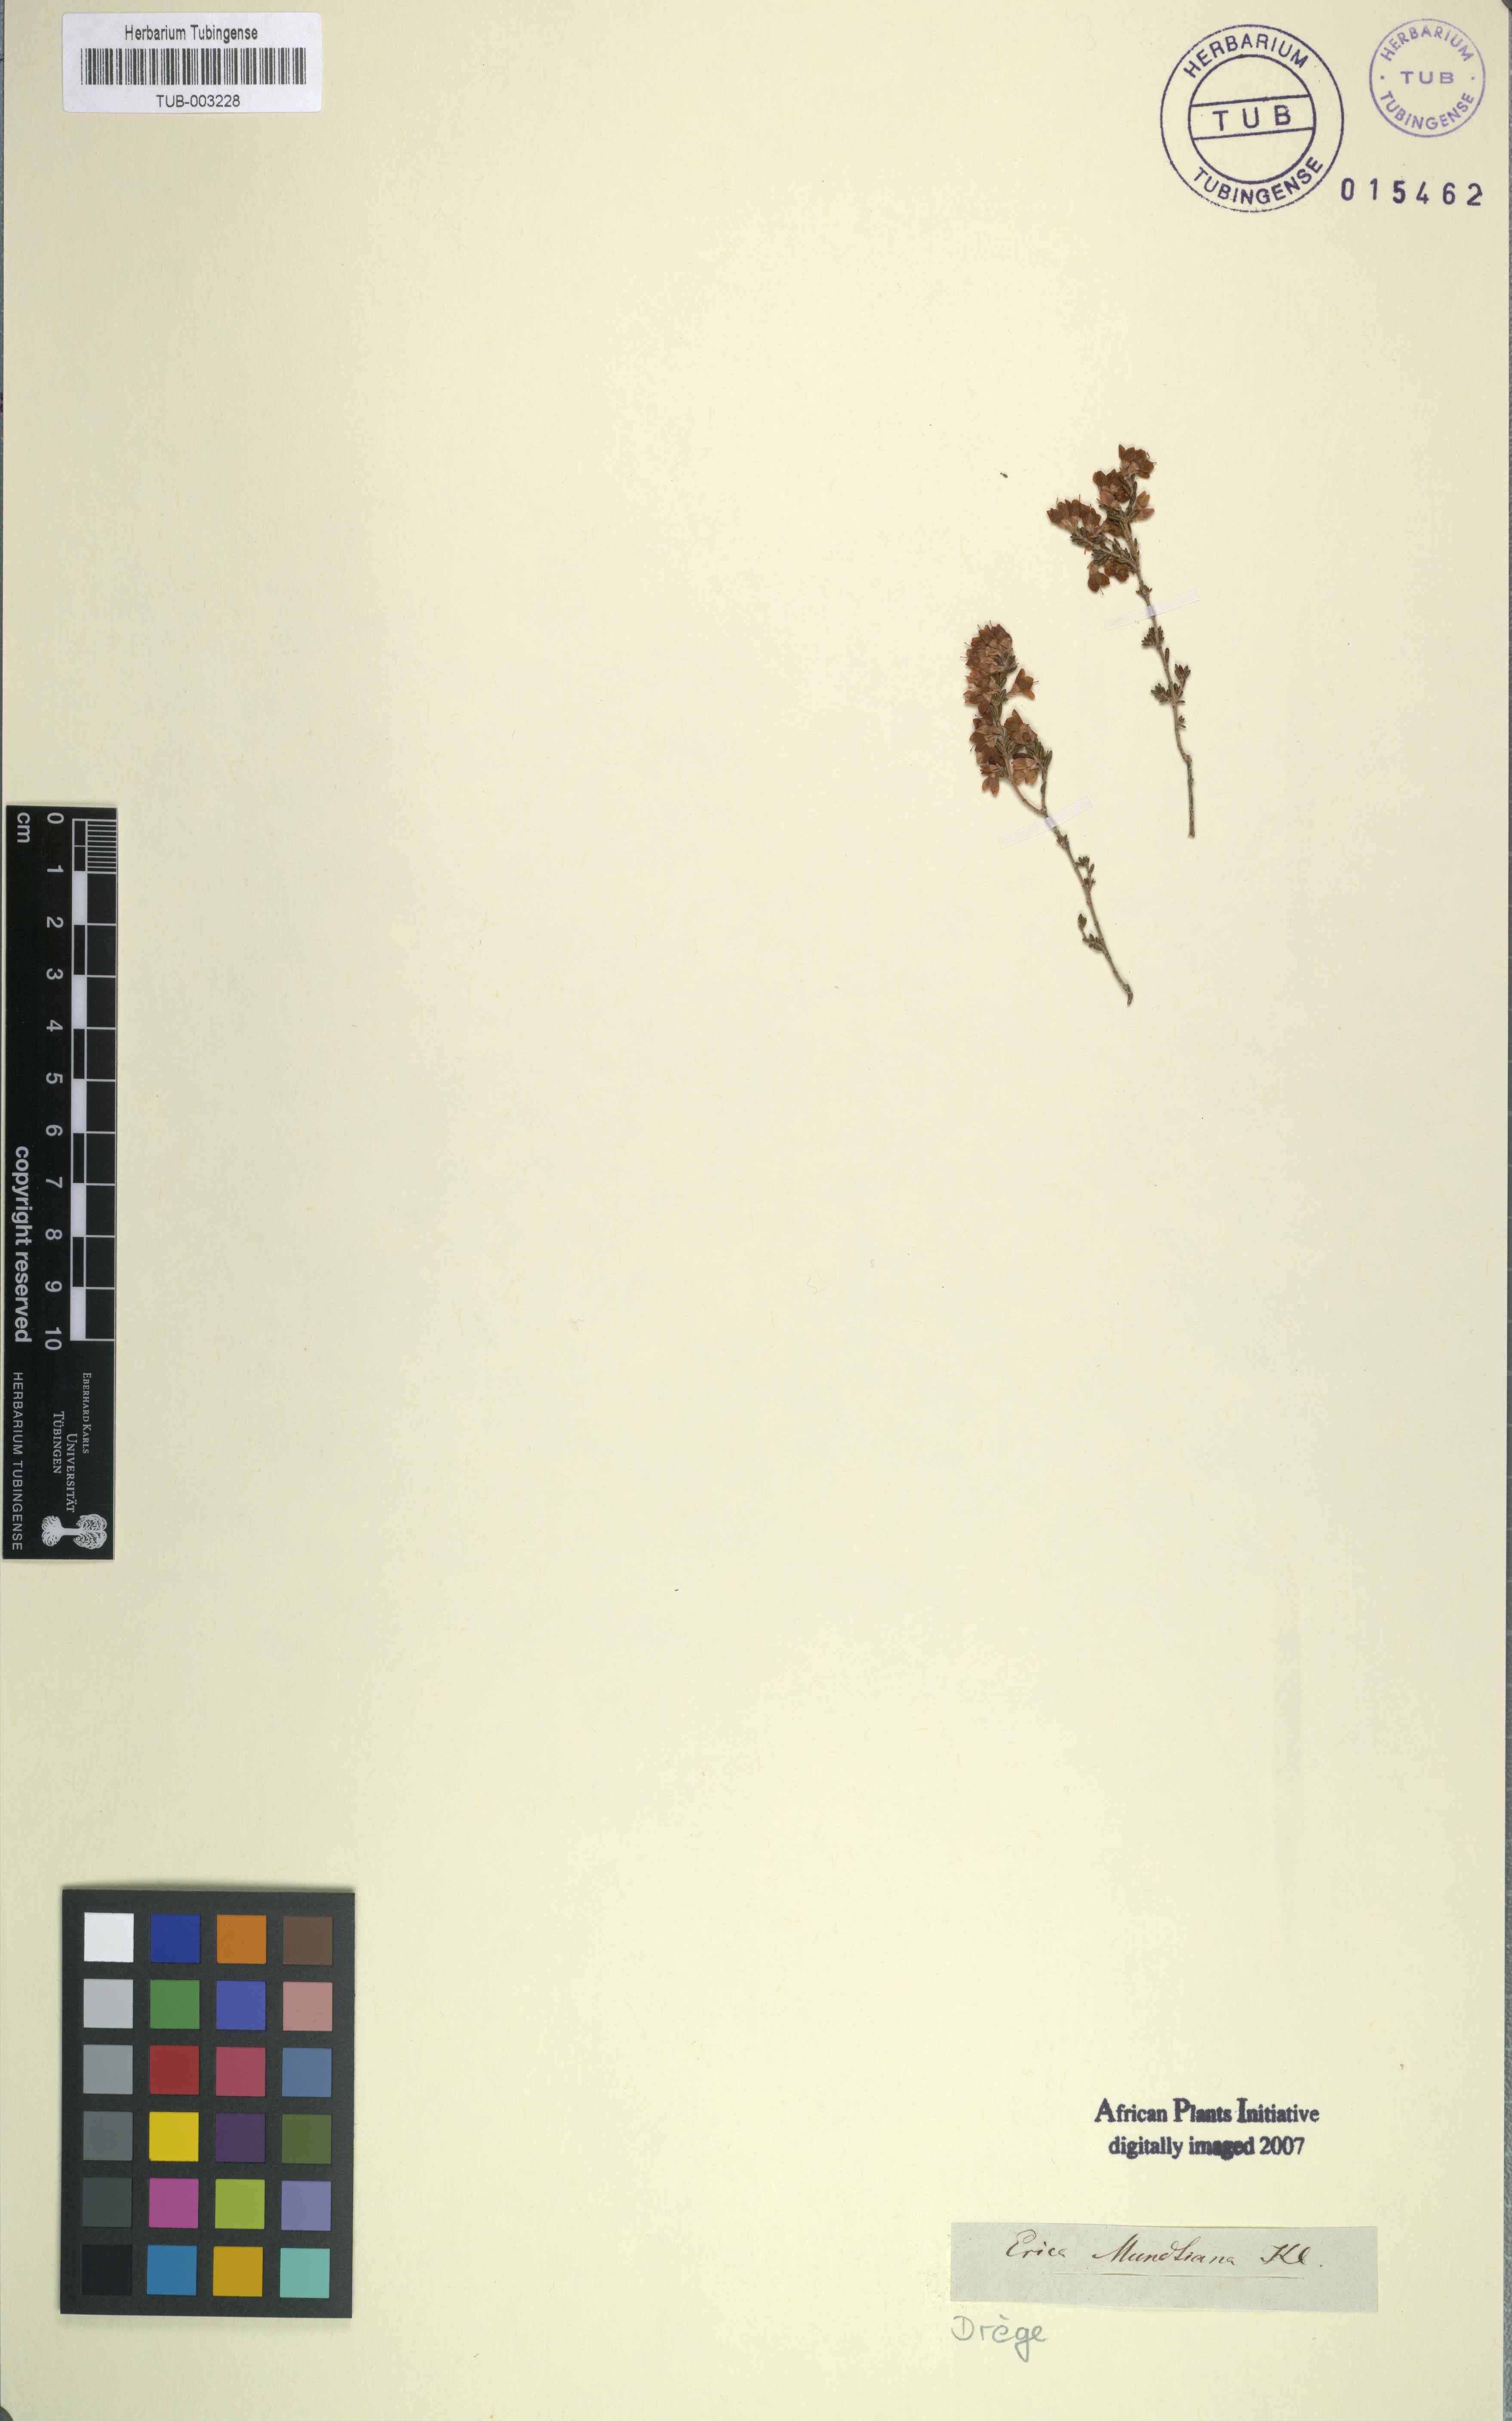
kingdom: Plantae
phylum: Tracheophyta
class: Magnoliopsida
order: Ericales
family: Ericaceae
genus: Erica
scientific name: Erica melanthera
